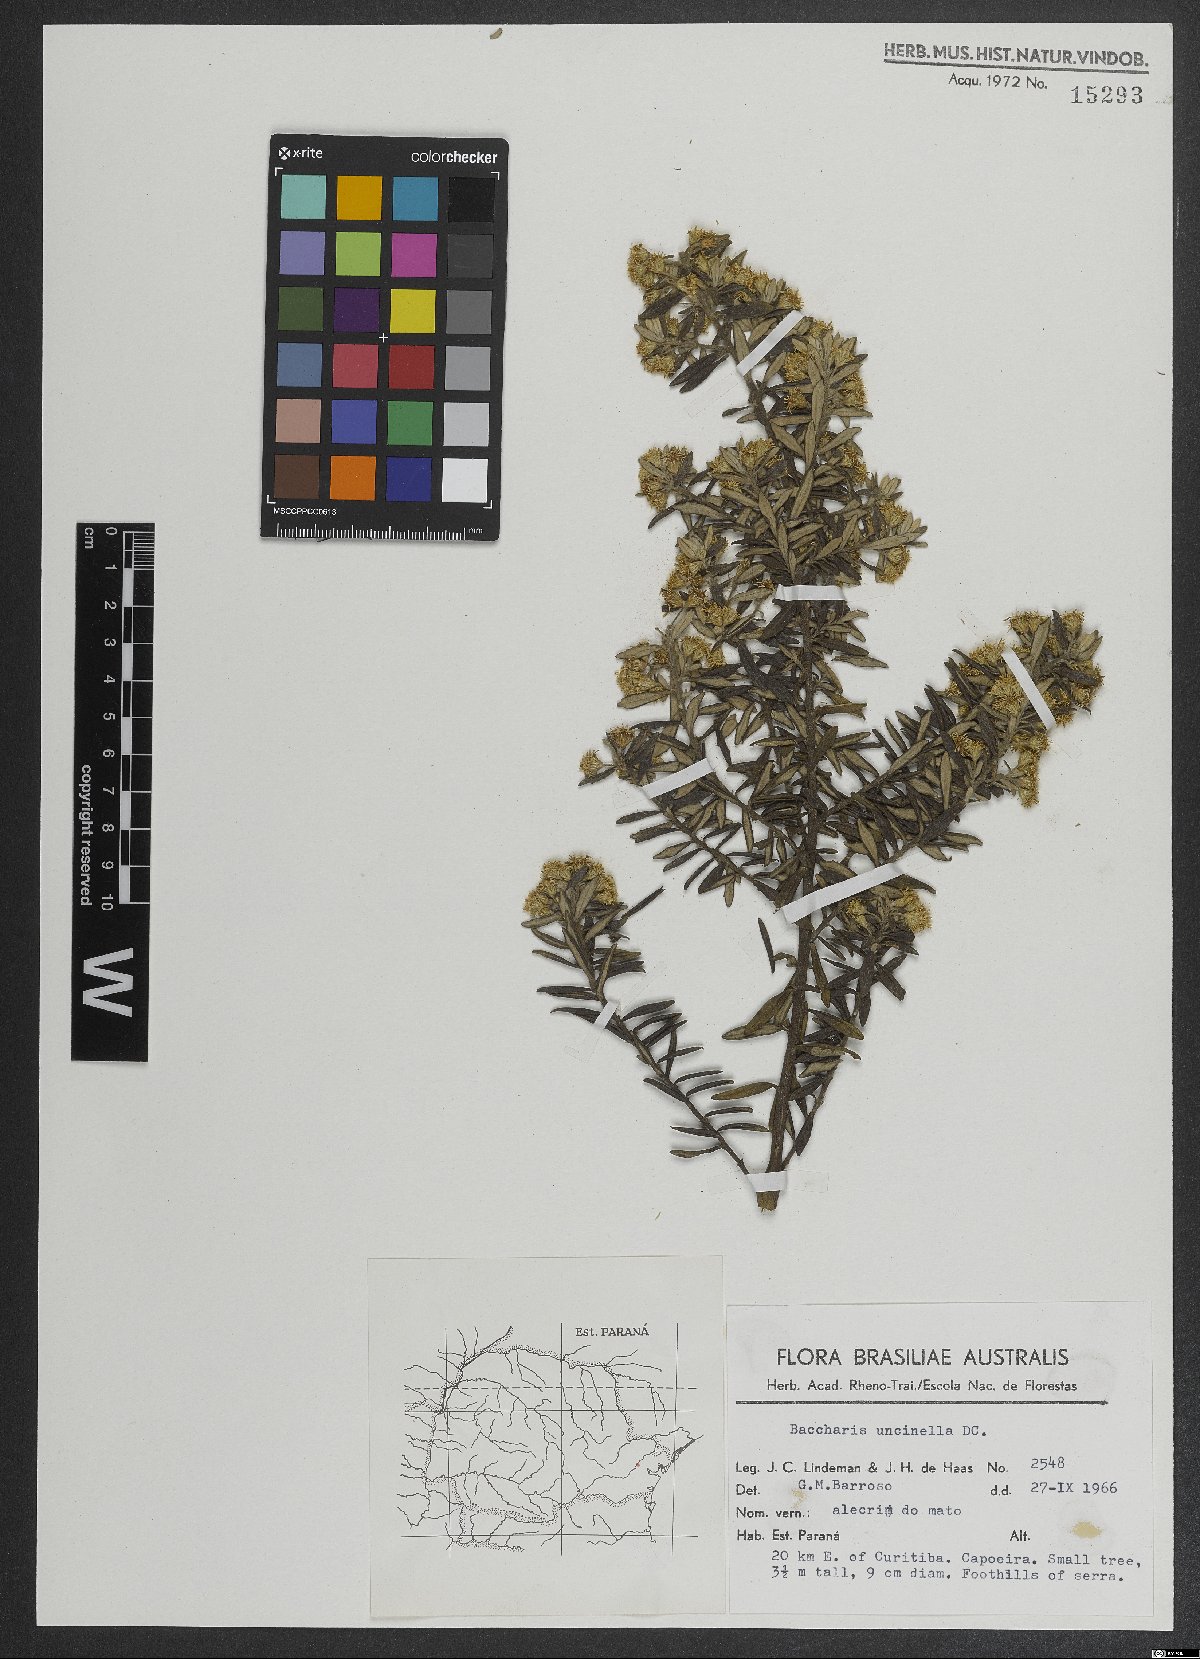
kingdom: Plantae
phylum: Tracheophyta
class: Magnoliopsida
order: Asterales
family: Asteraceae
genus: Baccharis
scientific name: Baccharis uncinella
